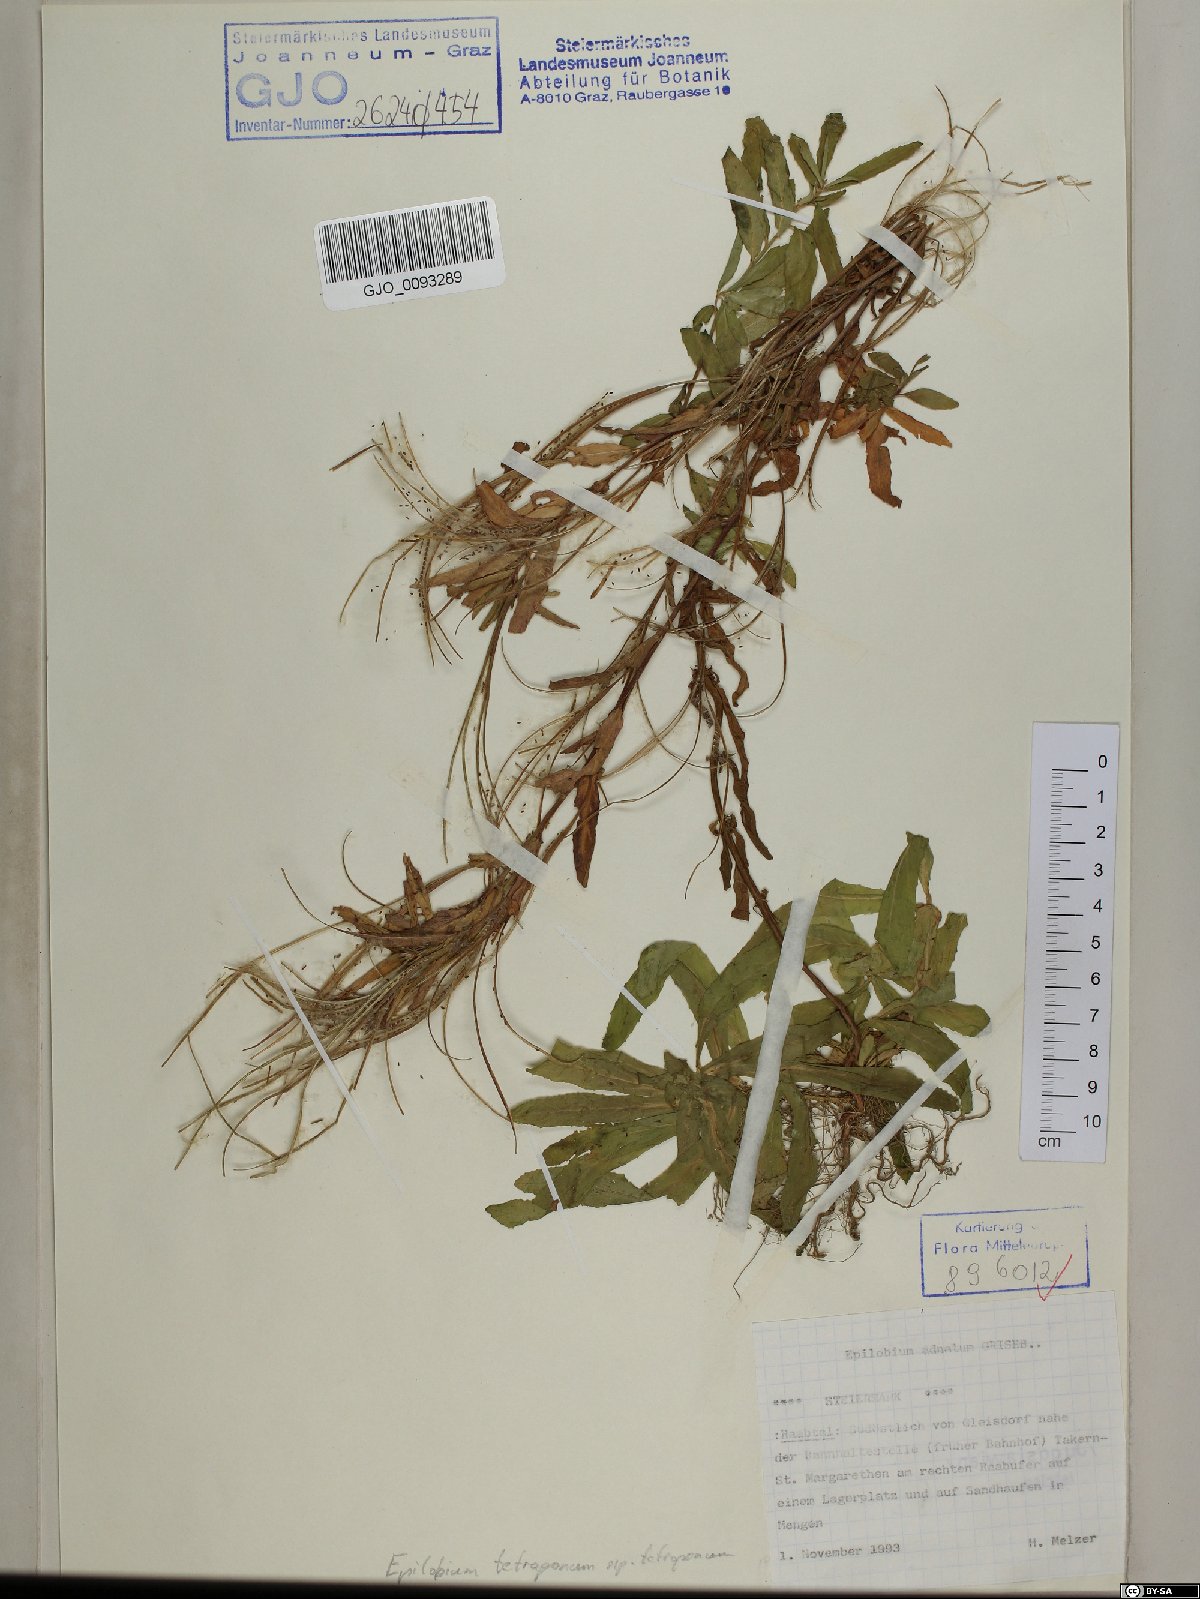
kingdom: Plantae
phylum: Tracheophyta
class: Magnoliopsida
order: Myrtales
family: Onagraceae
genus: Epilobium
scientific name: Epilobium tetragonum
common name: Square-stemmed willowherb
